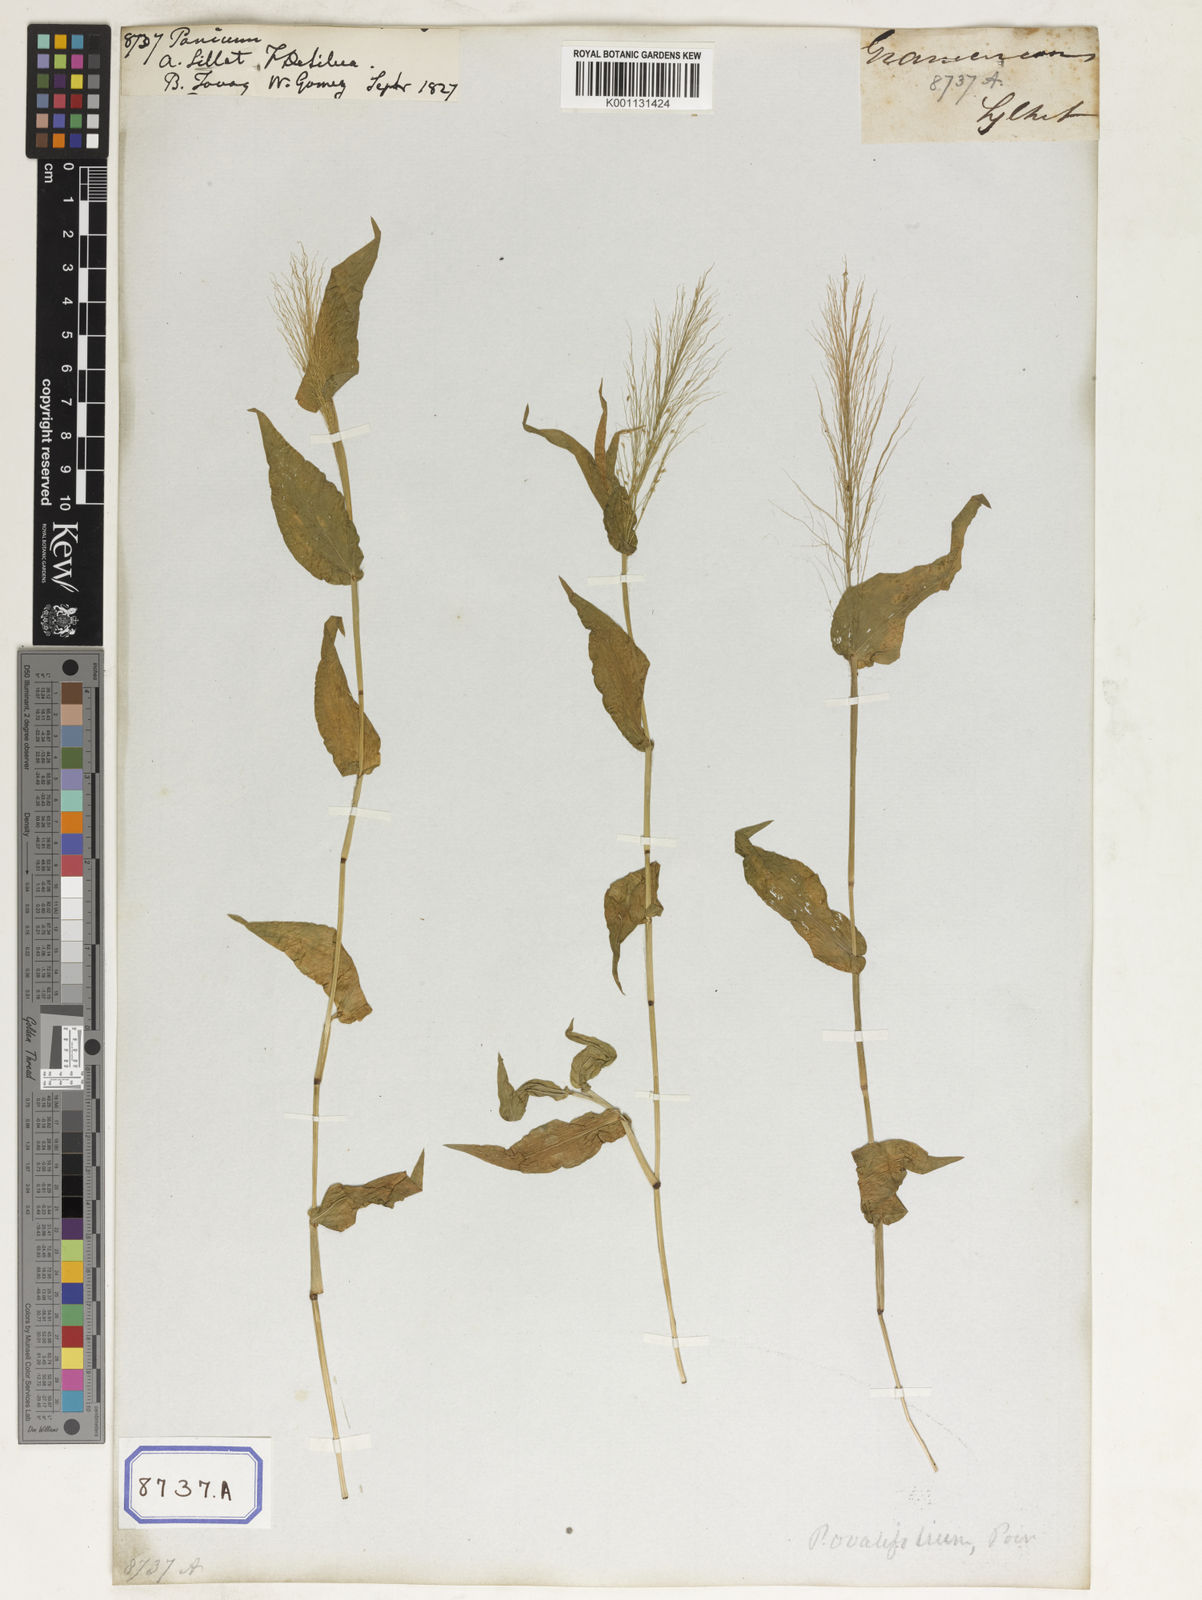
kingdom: Plantae
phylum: Tracheophyta
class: Liliopsida
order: Poales
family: Poaceae
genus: Panicum
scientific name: Panicum
